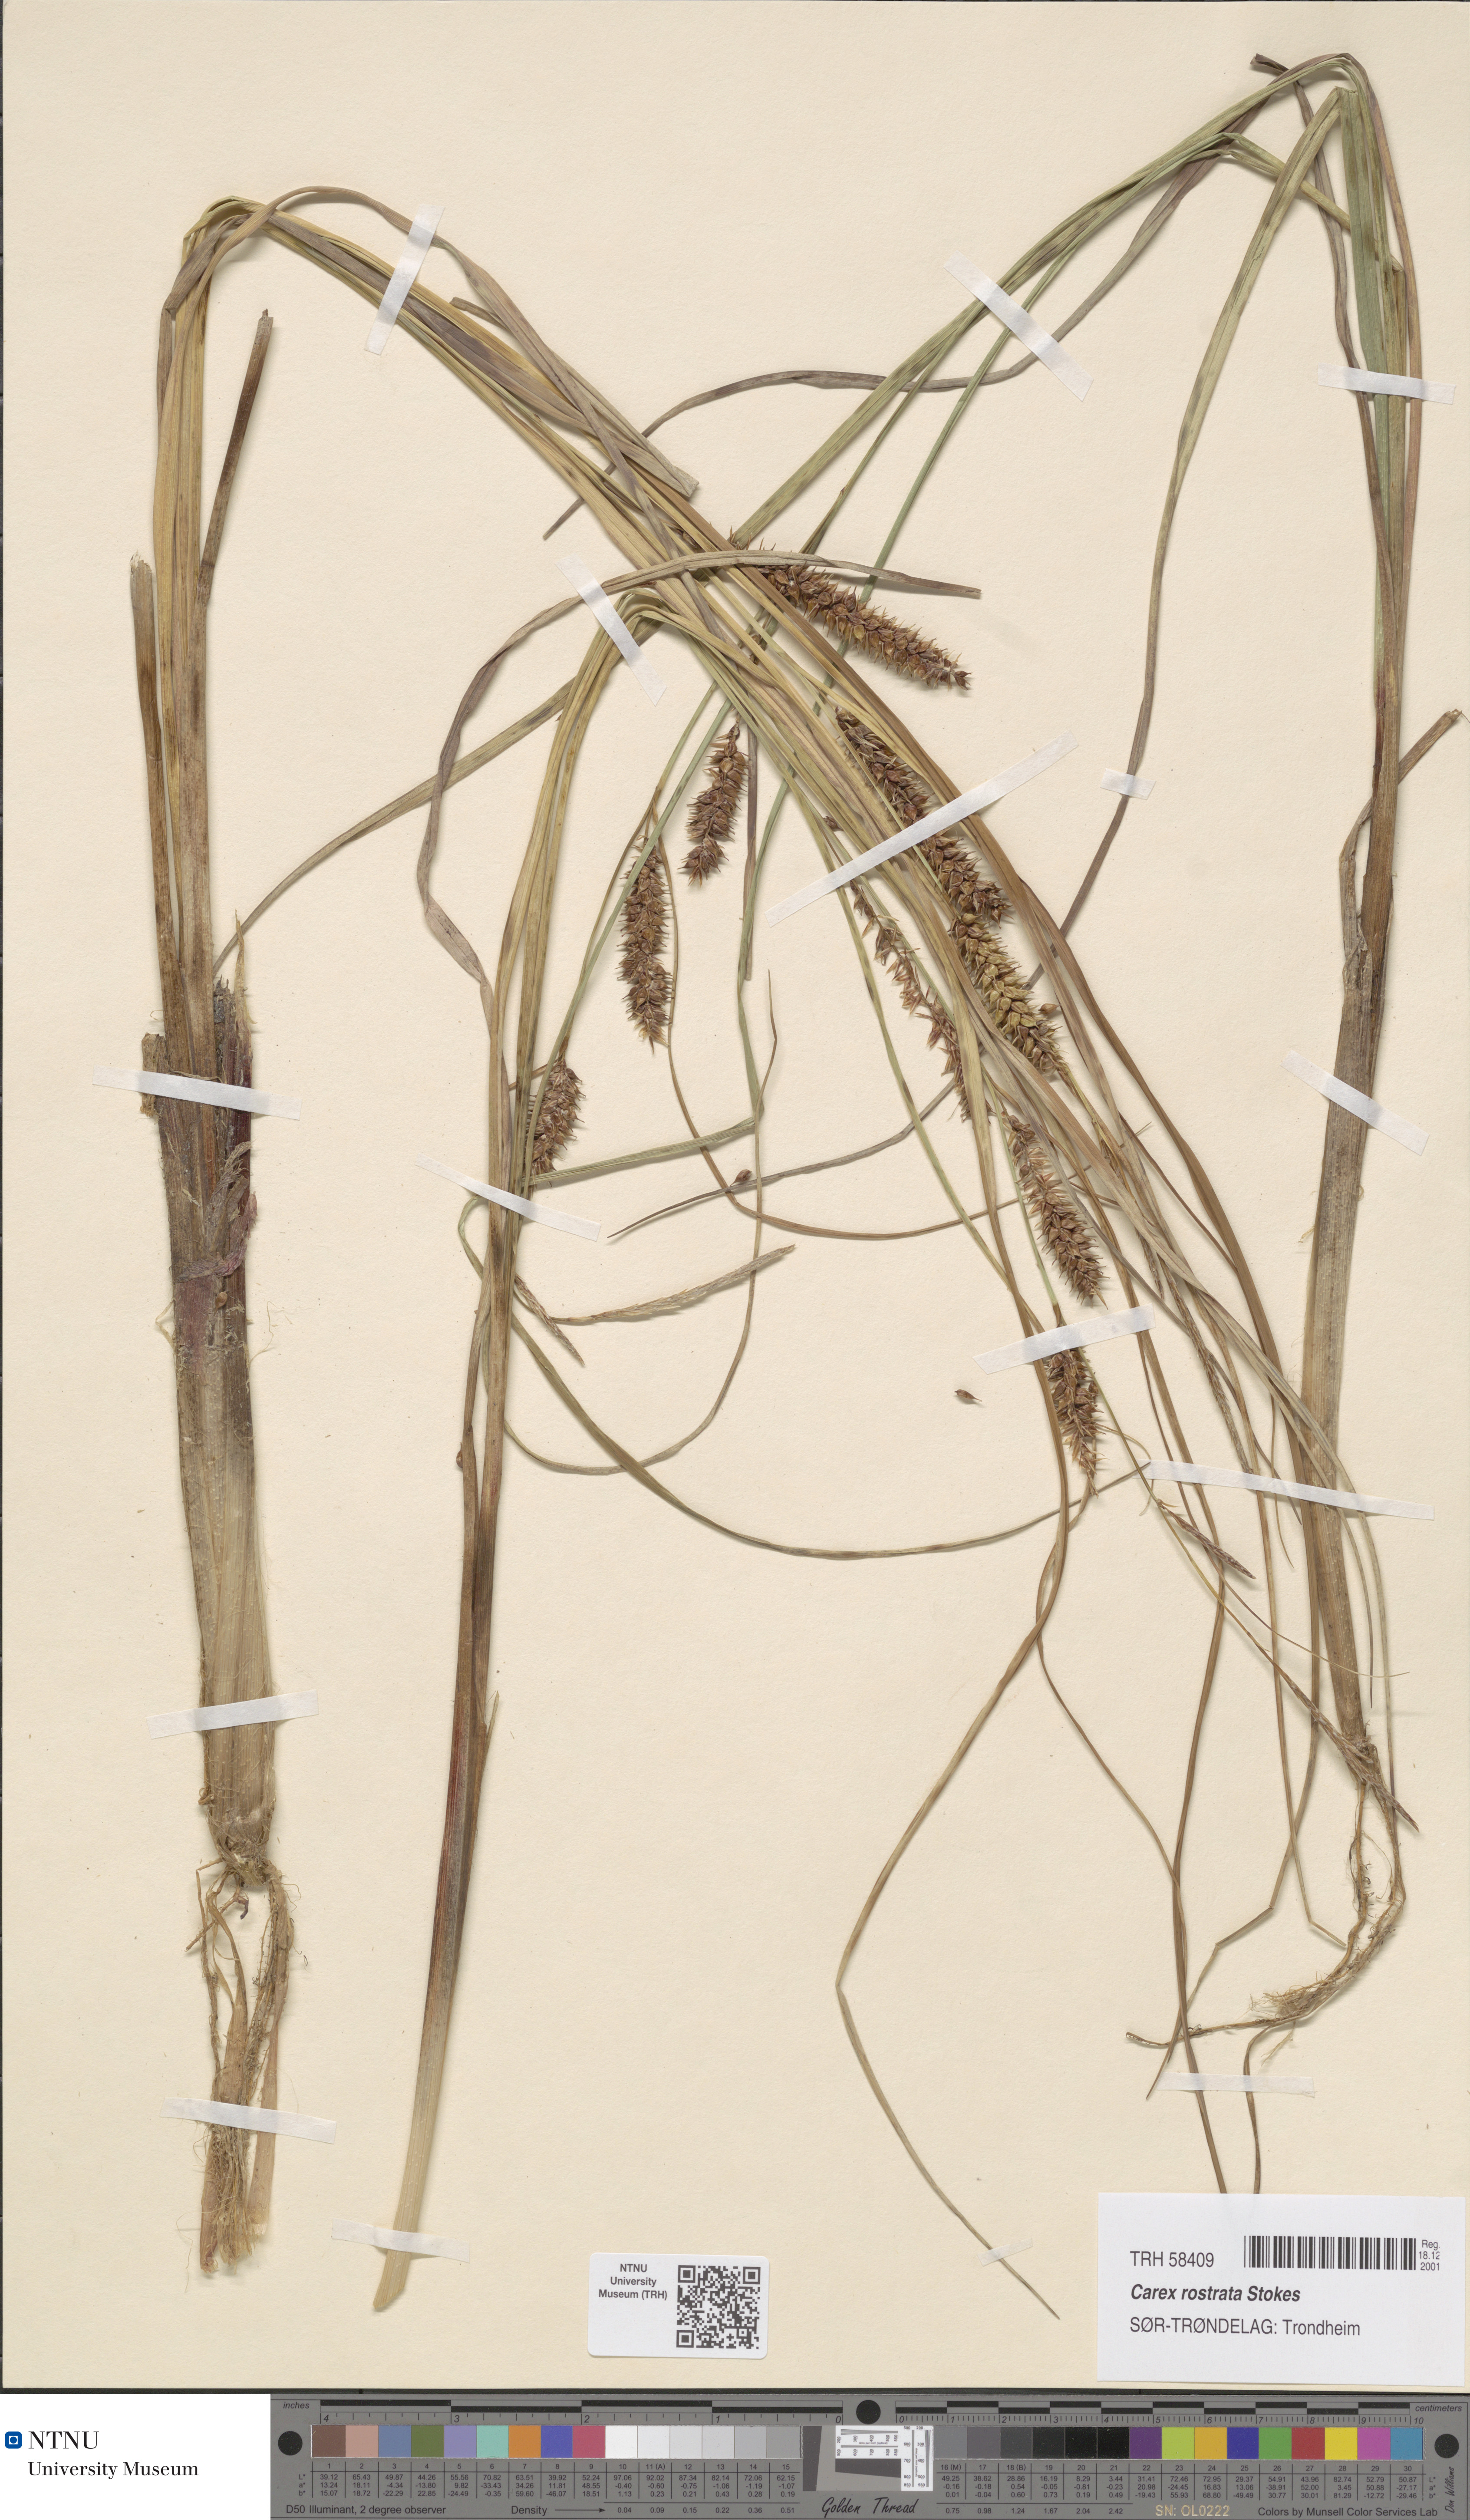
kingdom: Plantae
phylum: Tracheophyta
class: Liliopsida
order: Poales
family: Cyperaceae
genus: Carex
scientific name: Carex rostrata
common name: Bottle sedge
